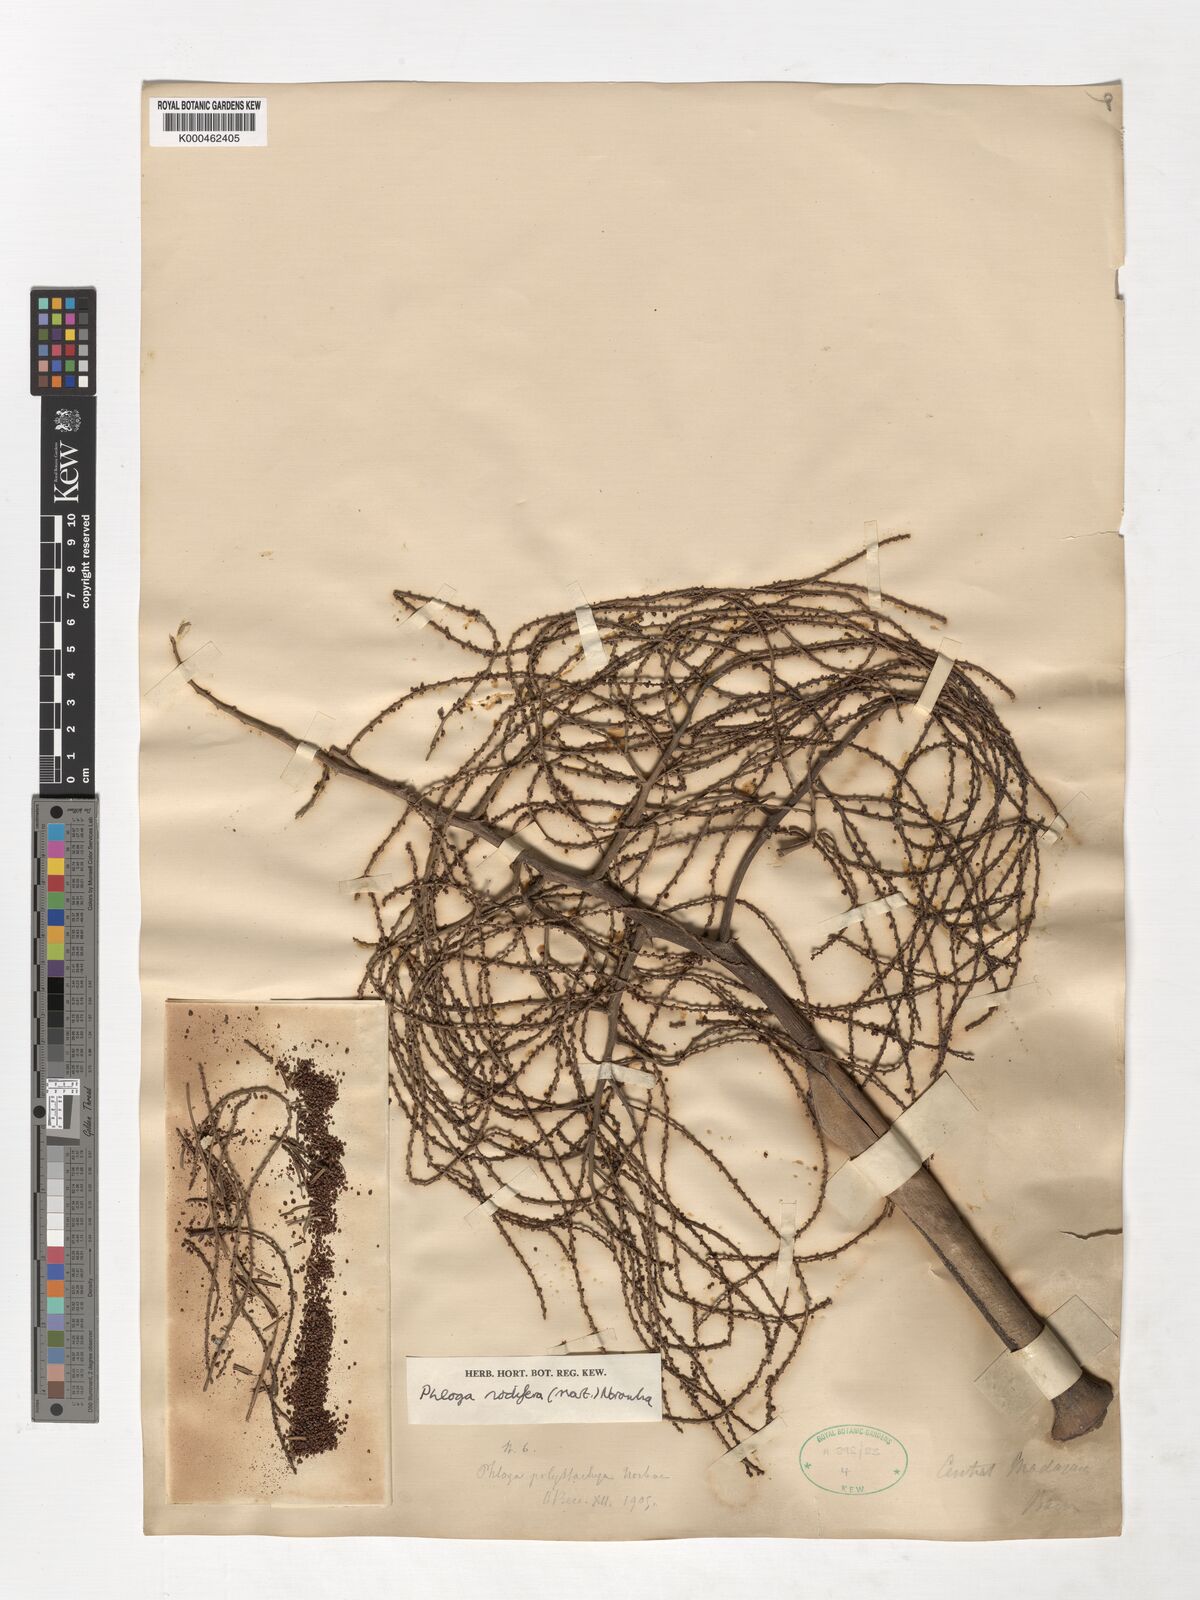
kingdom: Plantae
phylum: Tracheophyta
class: Liliopsida
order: Arecales
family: Arecaceae
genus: Dypsis
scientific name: Dypsis nodifera
